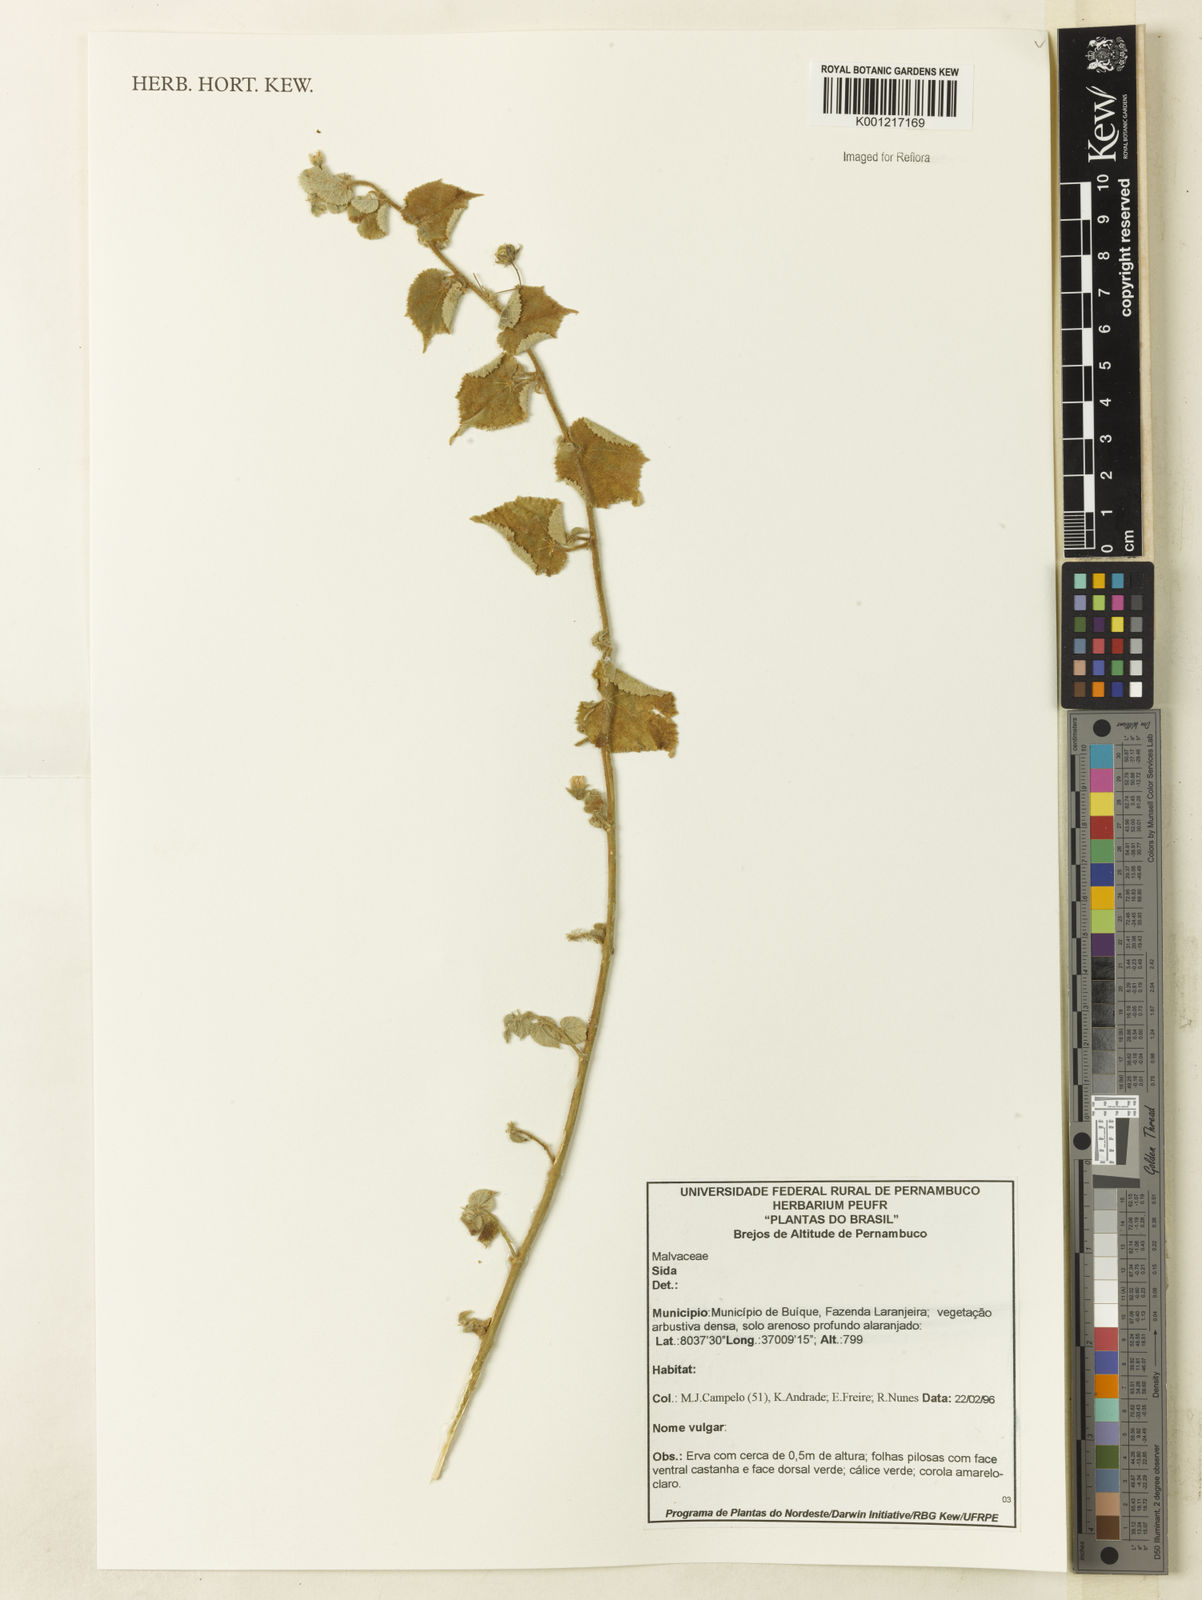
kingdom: Plantae
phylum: Tracheophyta
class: Magnoliopsida
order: Malvales
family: Malvaceae
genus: Sida
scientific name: Sida
